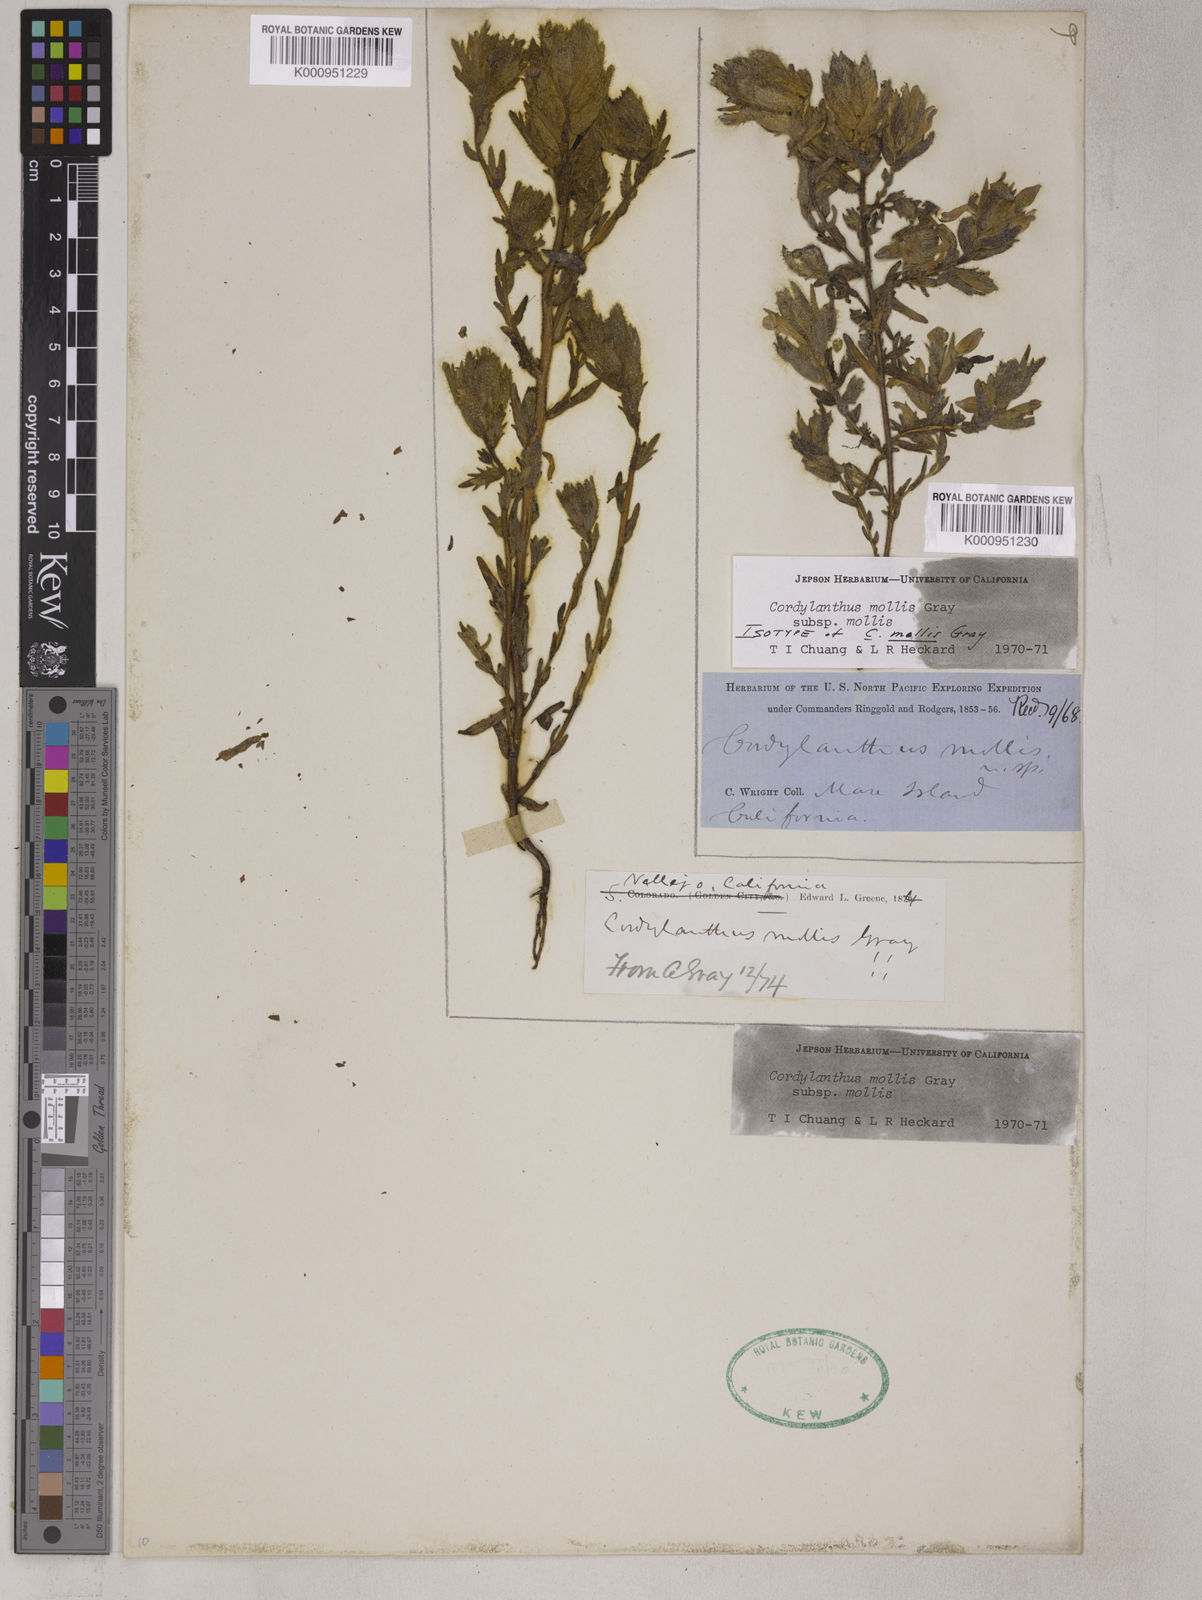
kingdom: Plantae
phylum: Tracheophyta
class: Magnoliopsida
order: Lamiales
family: Orobanchaceae
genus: Chloropyron
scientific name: Chloropyron molle
